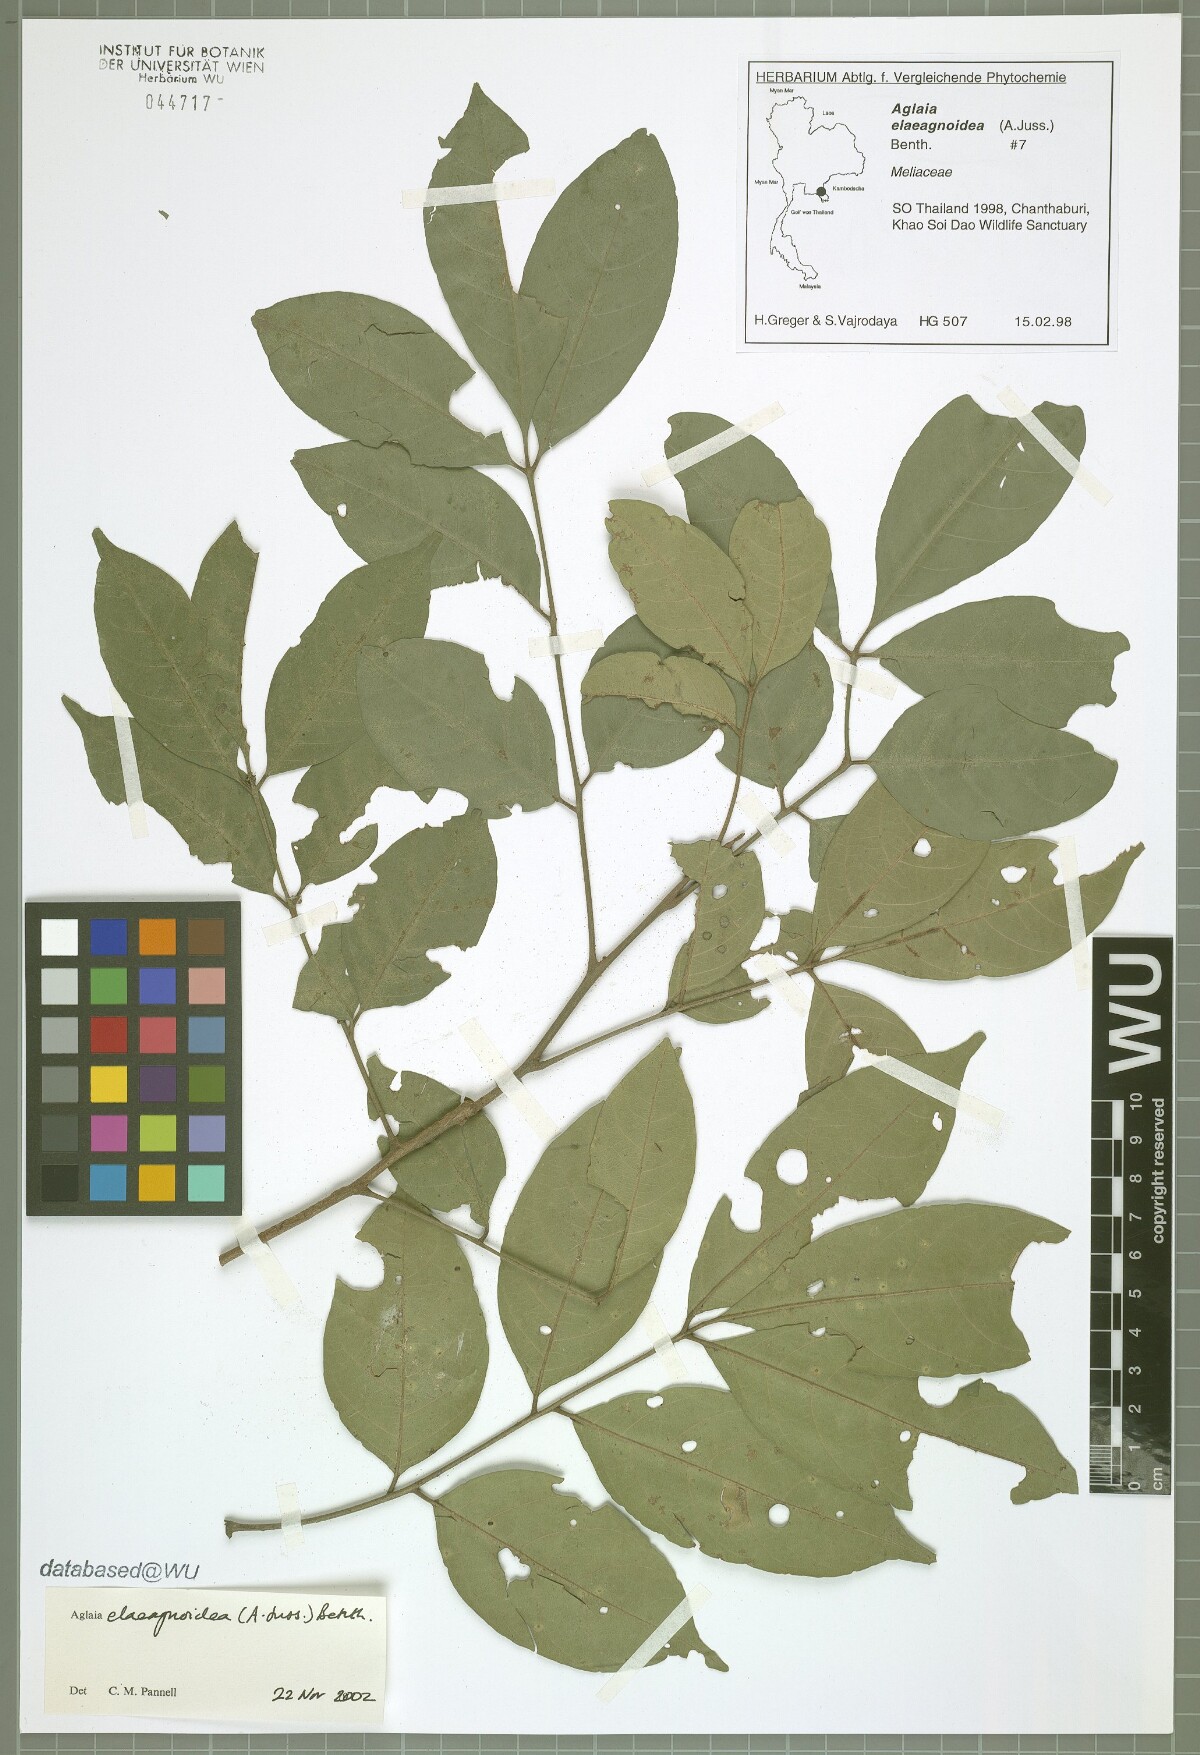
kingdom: Plantae
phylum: Tracheophyta
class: Magnoliopsida
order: Sapindales
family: Meliaceae
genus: Aglaia
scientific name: Aglaia elaeagnoidea
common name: Droopyleaf
